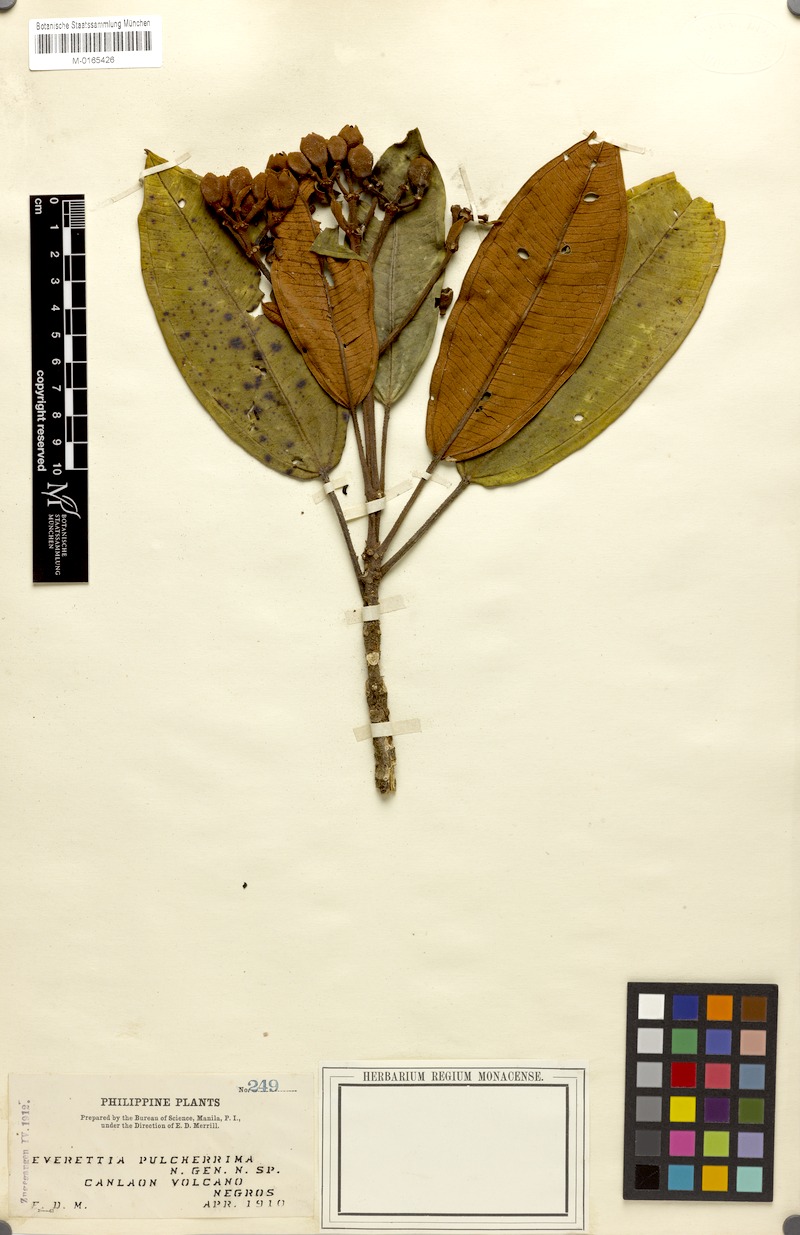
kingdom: Plantae
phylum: Tracheophyta
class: Magnoliopsida
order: Myrtales
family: Melastomataceae
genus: Beccarianthus
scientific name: Beccarianthus pulcherrimus
